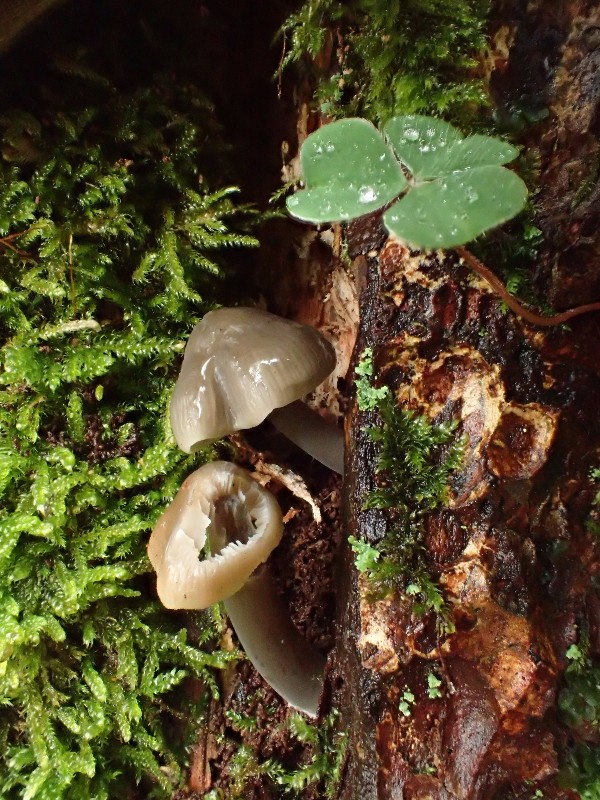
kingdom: Fungi
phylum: Basidiomycota
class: Agaricomycetes
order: Agaricales
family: Mycenaceae
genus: Mycena
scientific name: Mycena galericulata
